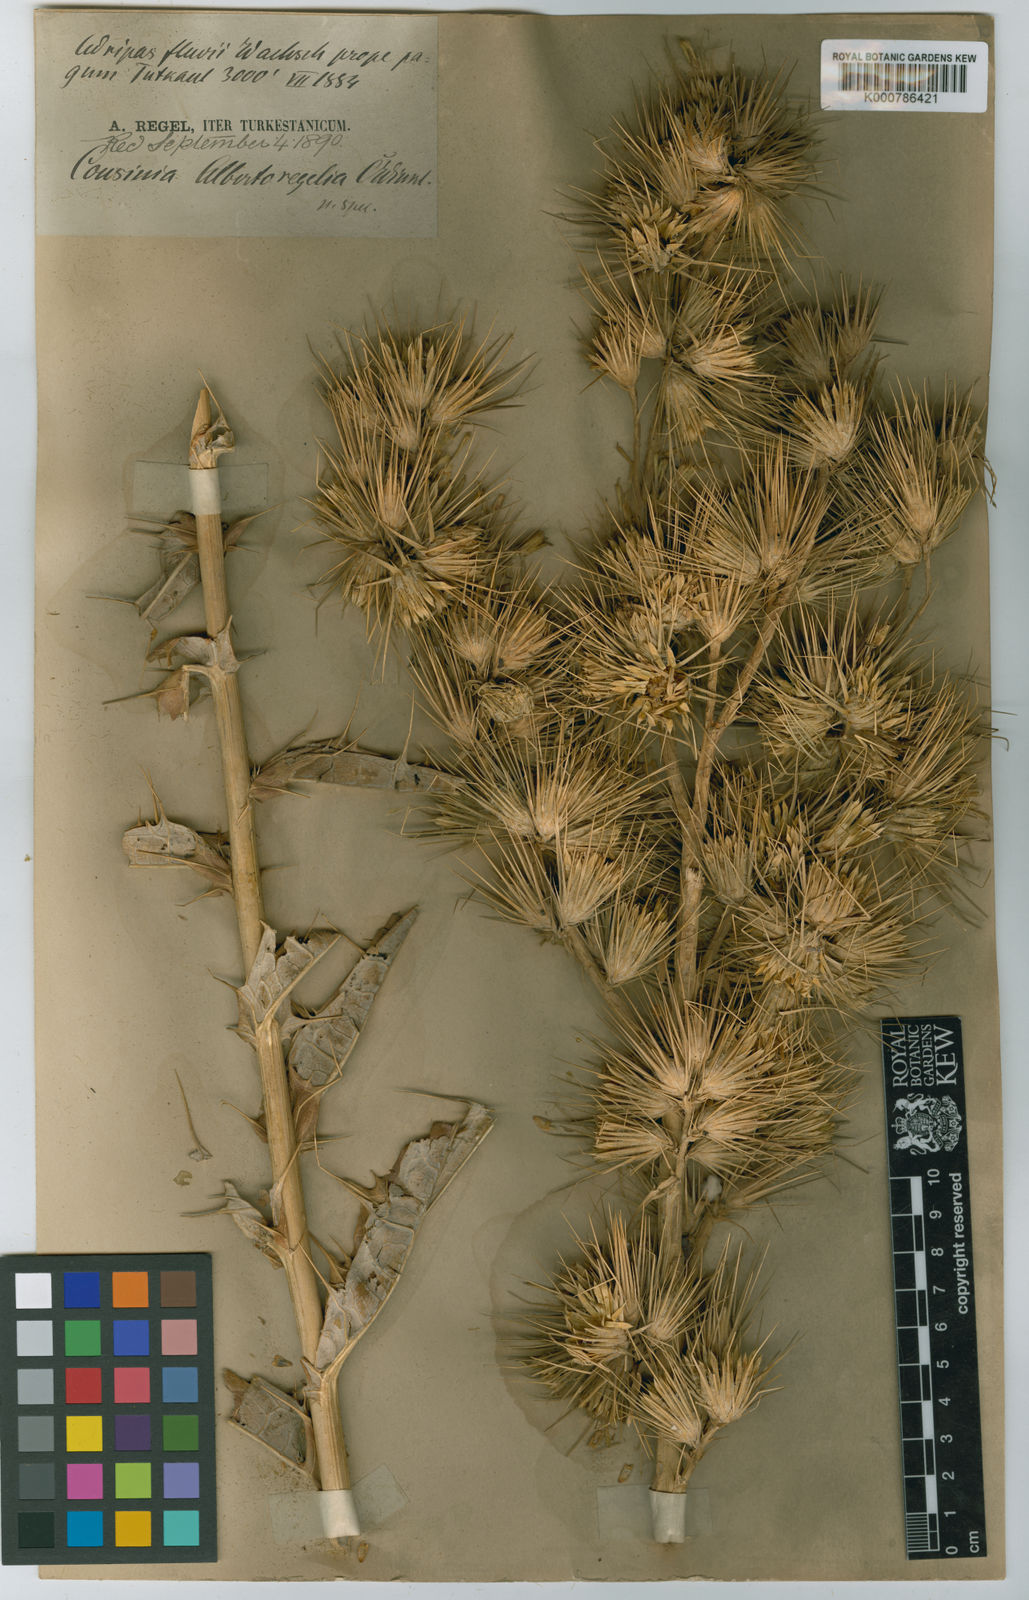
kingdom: Plantae
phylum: Tracheophyta
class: Magnoliopsida
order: Asterales
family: Asteraceae
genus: Cousinia
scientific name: Cousinia albertoregelia
